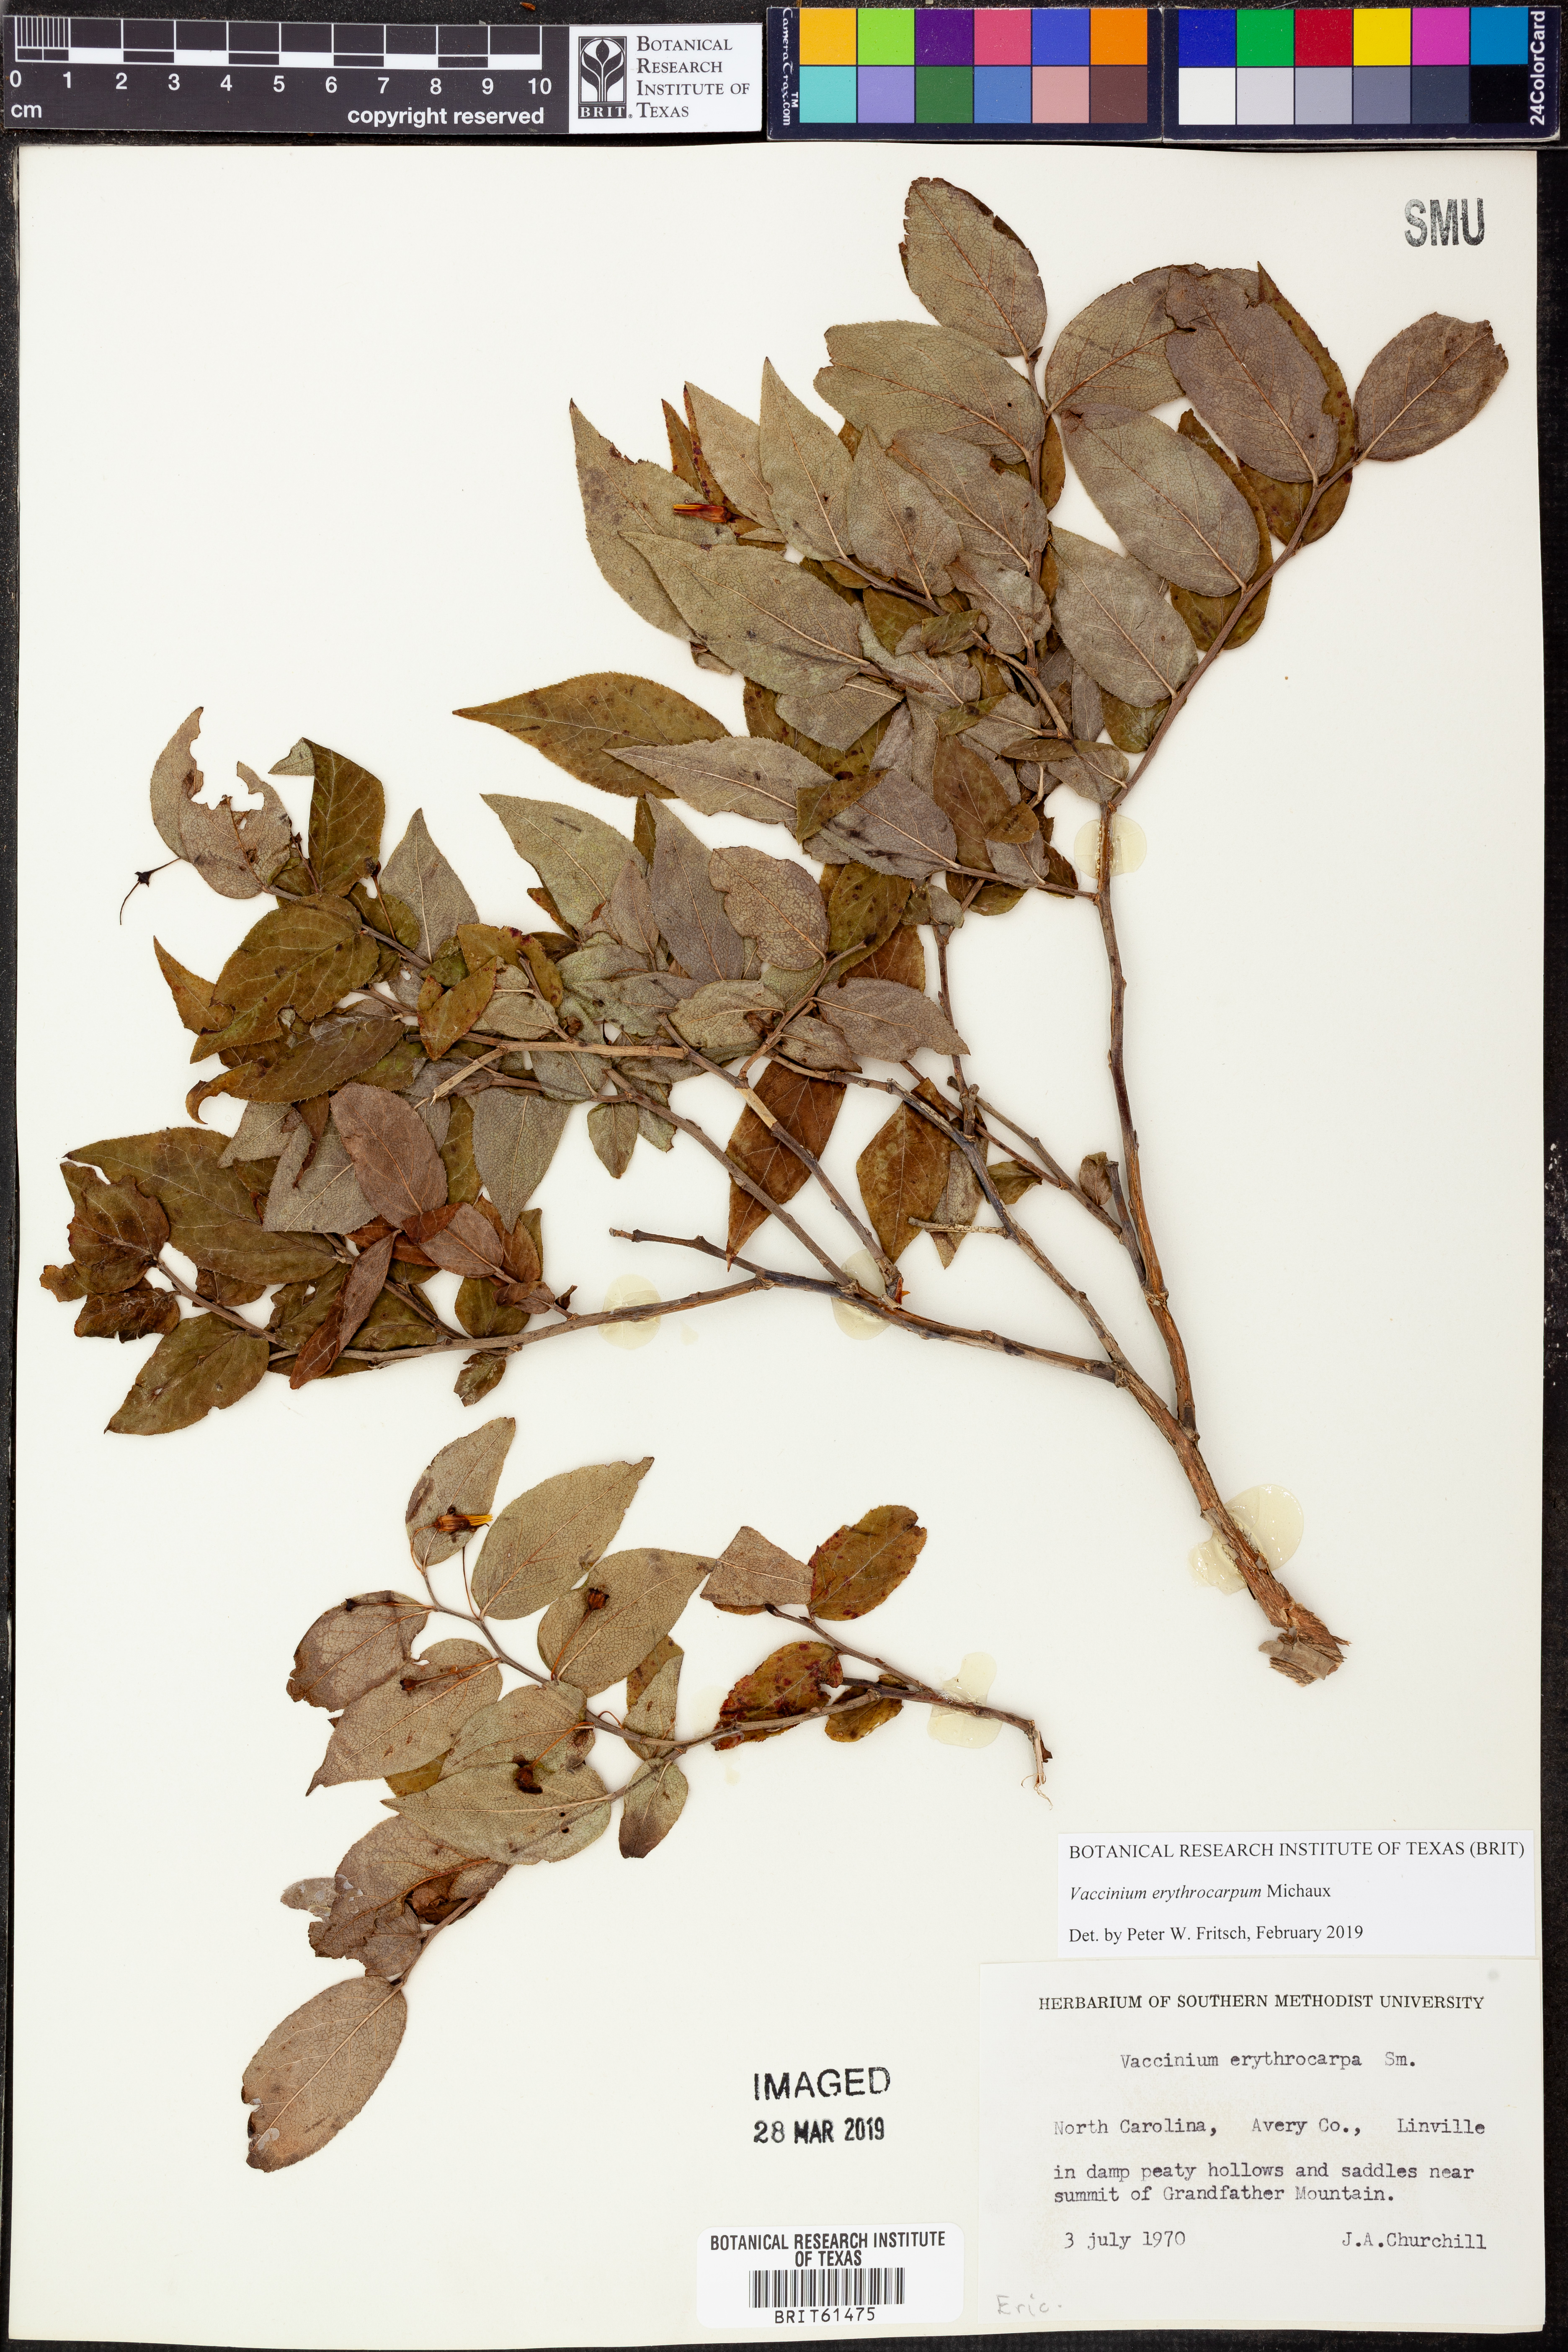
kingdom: Plantae
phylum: Tracheophyta
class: Magnoliopsida
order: Ericales
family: Ericaceae
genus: Vaccinium
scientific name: Vaccinium erythrocarpum
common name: Bearberry
